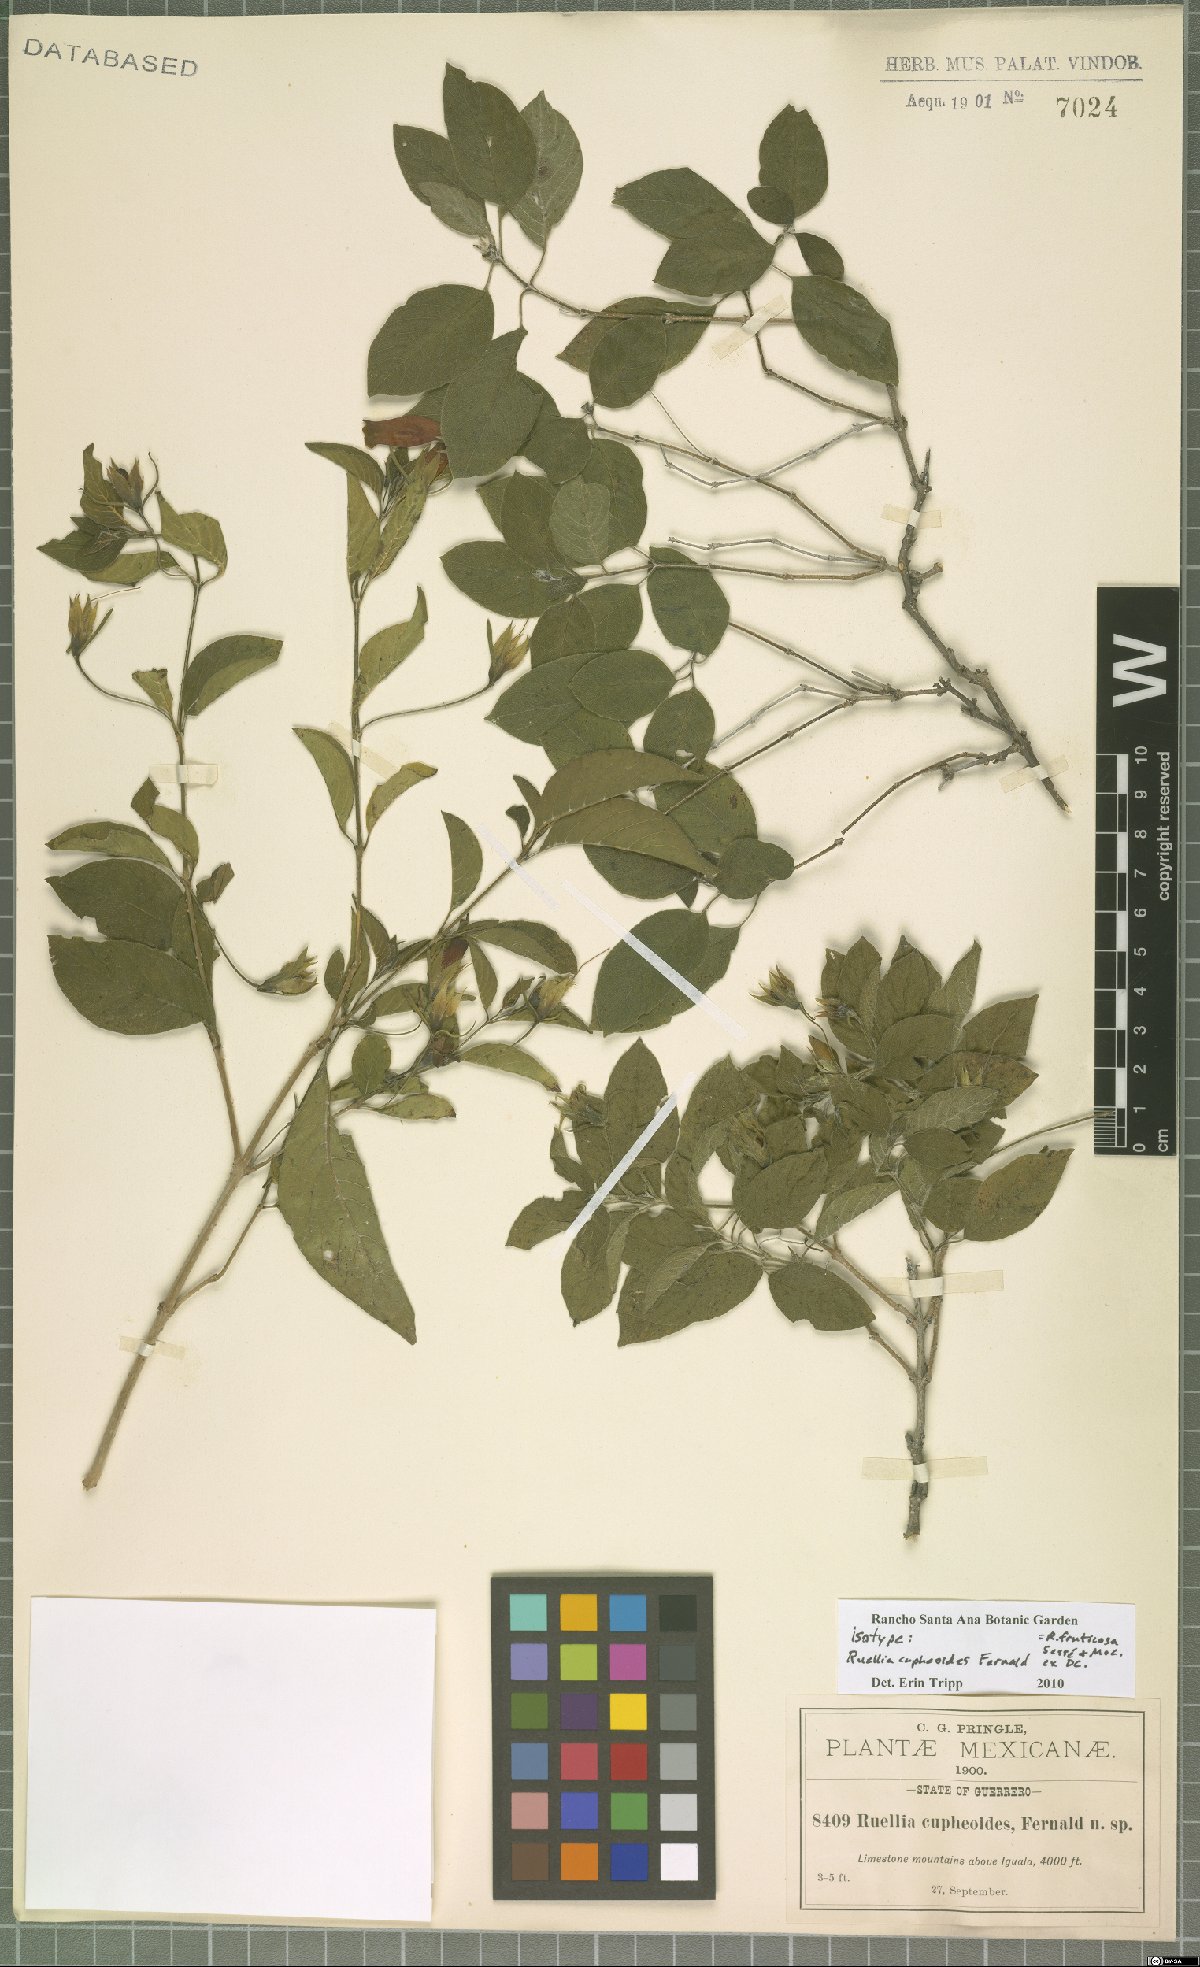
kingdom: Plantae
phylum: Tracheophyta
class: Magnoliopsida
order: Lamiales
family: Acanthaceae
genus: Ruellia
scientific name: Ruellia fruticosa
